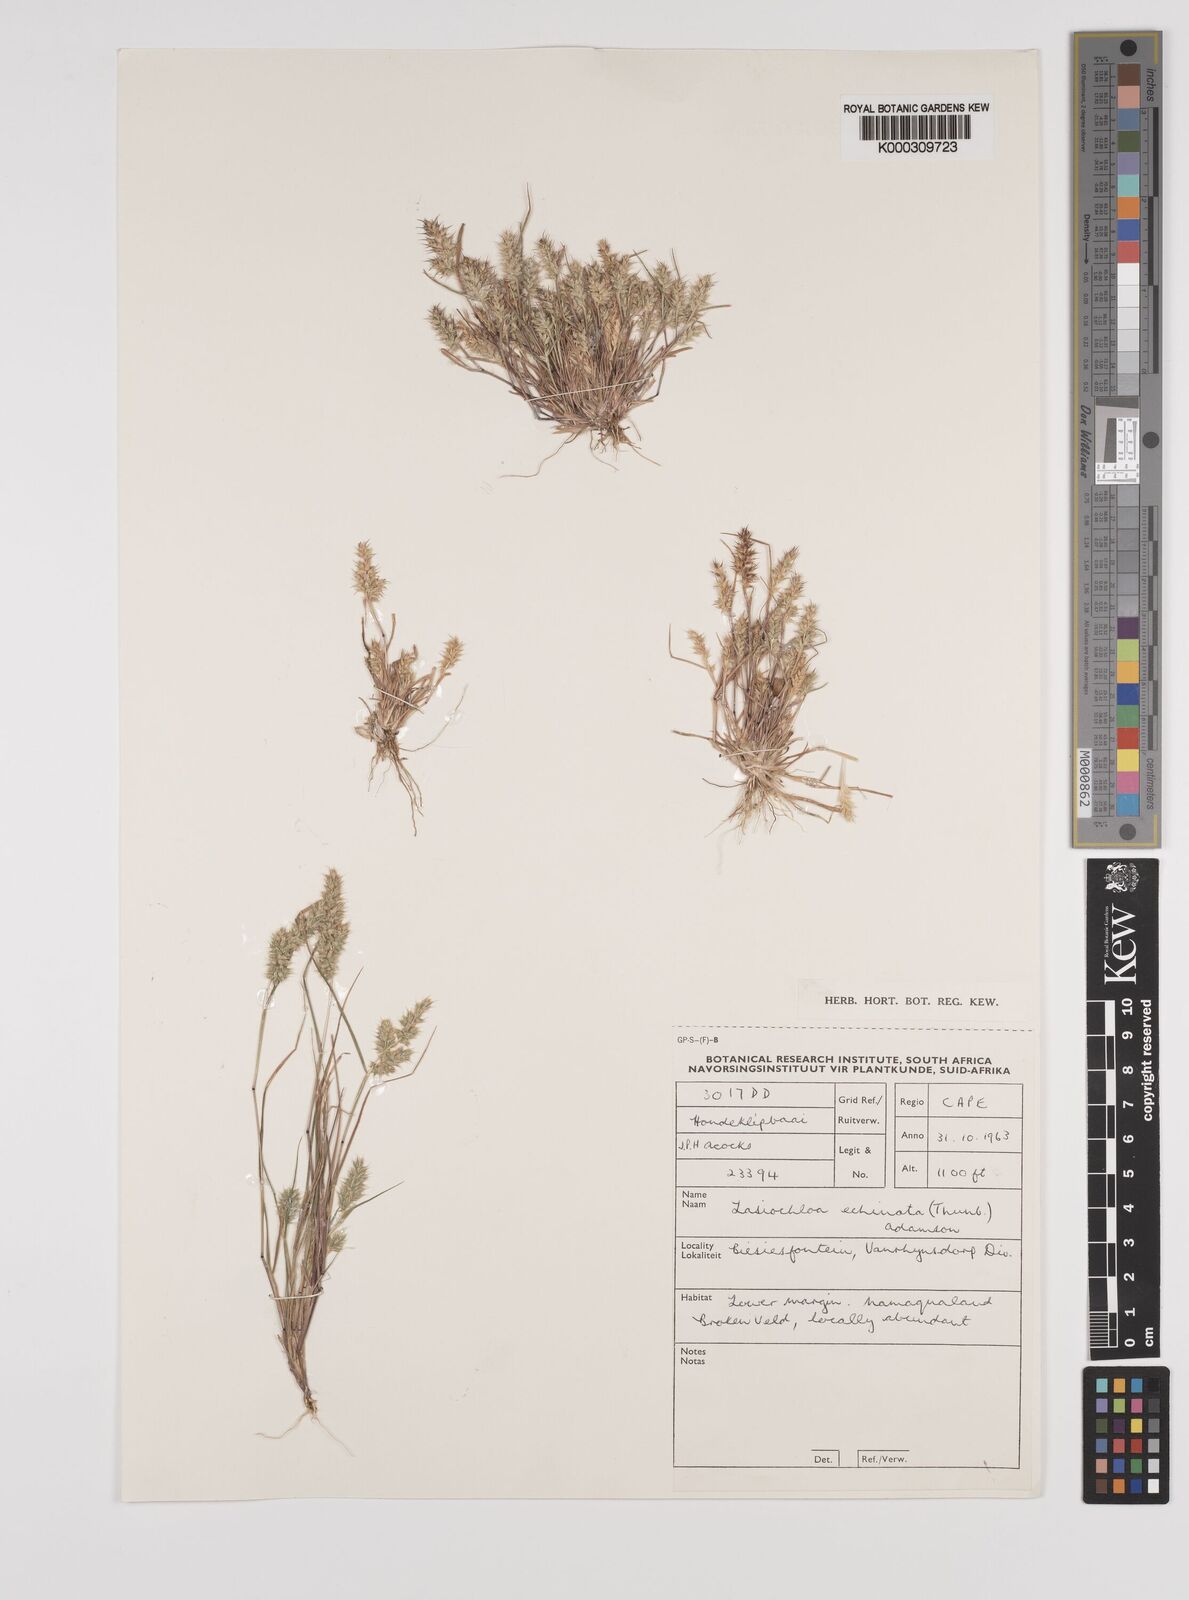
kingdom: Plantae
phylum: Tracheophyta
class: Liliopsida
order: Poales
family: Poaceae
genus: Tribolium
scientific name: Tribolium echinatum
